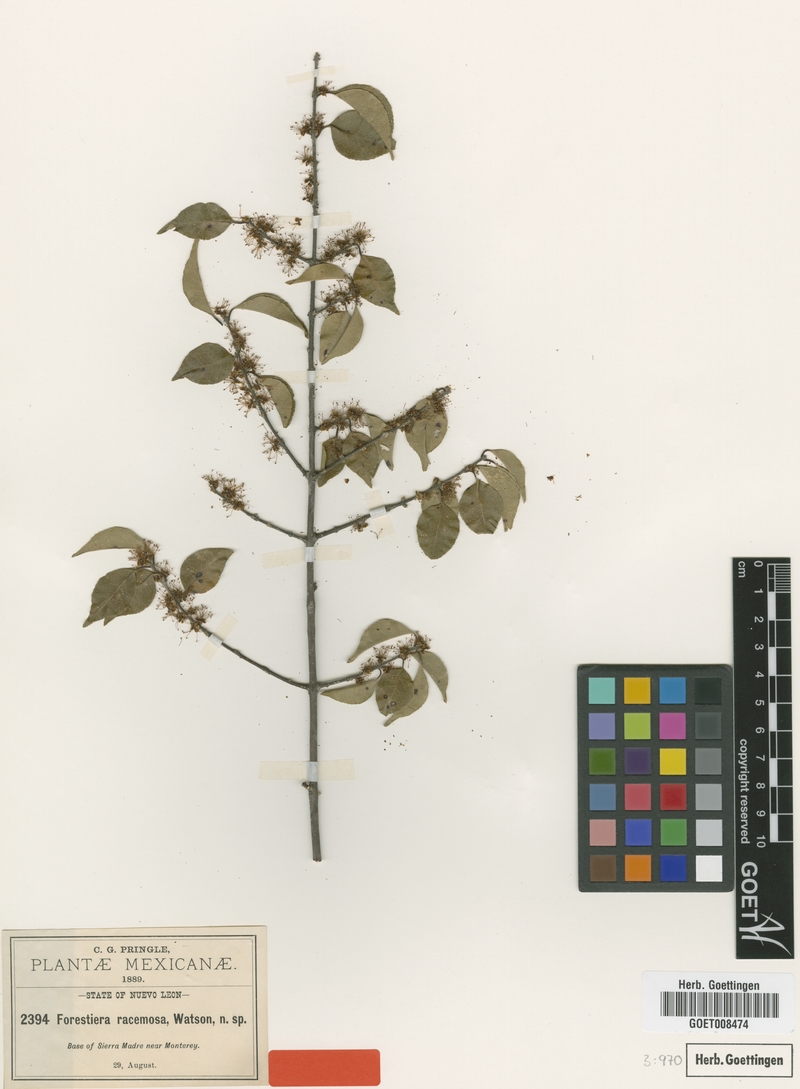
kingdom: Plantae
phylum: Tracheophyta
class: Magnoliopsida
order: Lamiales
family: Oleaceae
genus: Forestiera
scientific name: Forestiera racemosa
